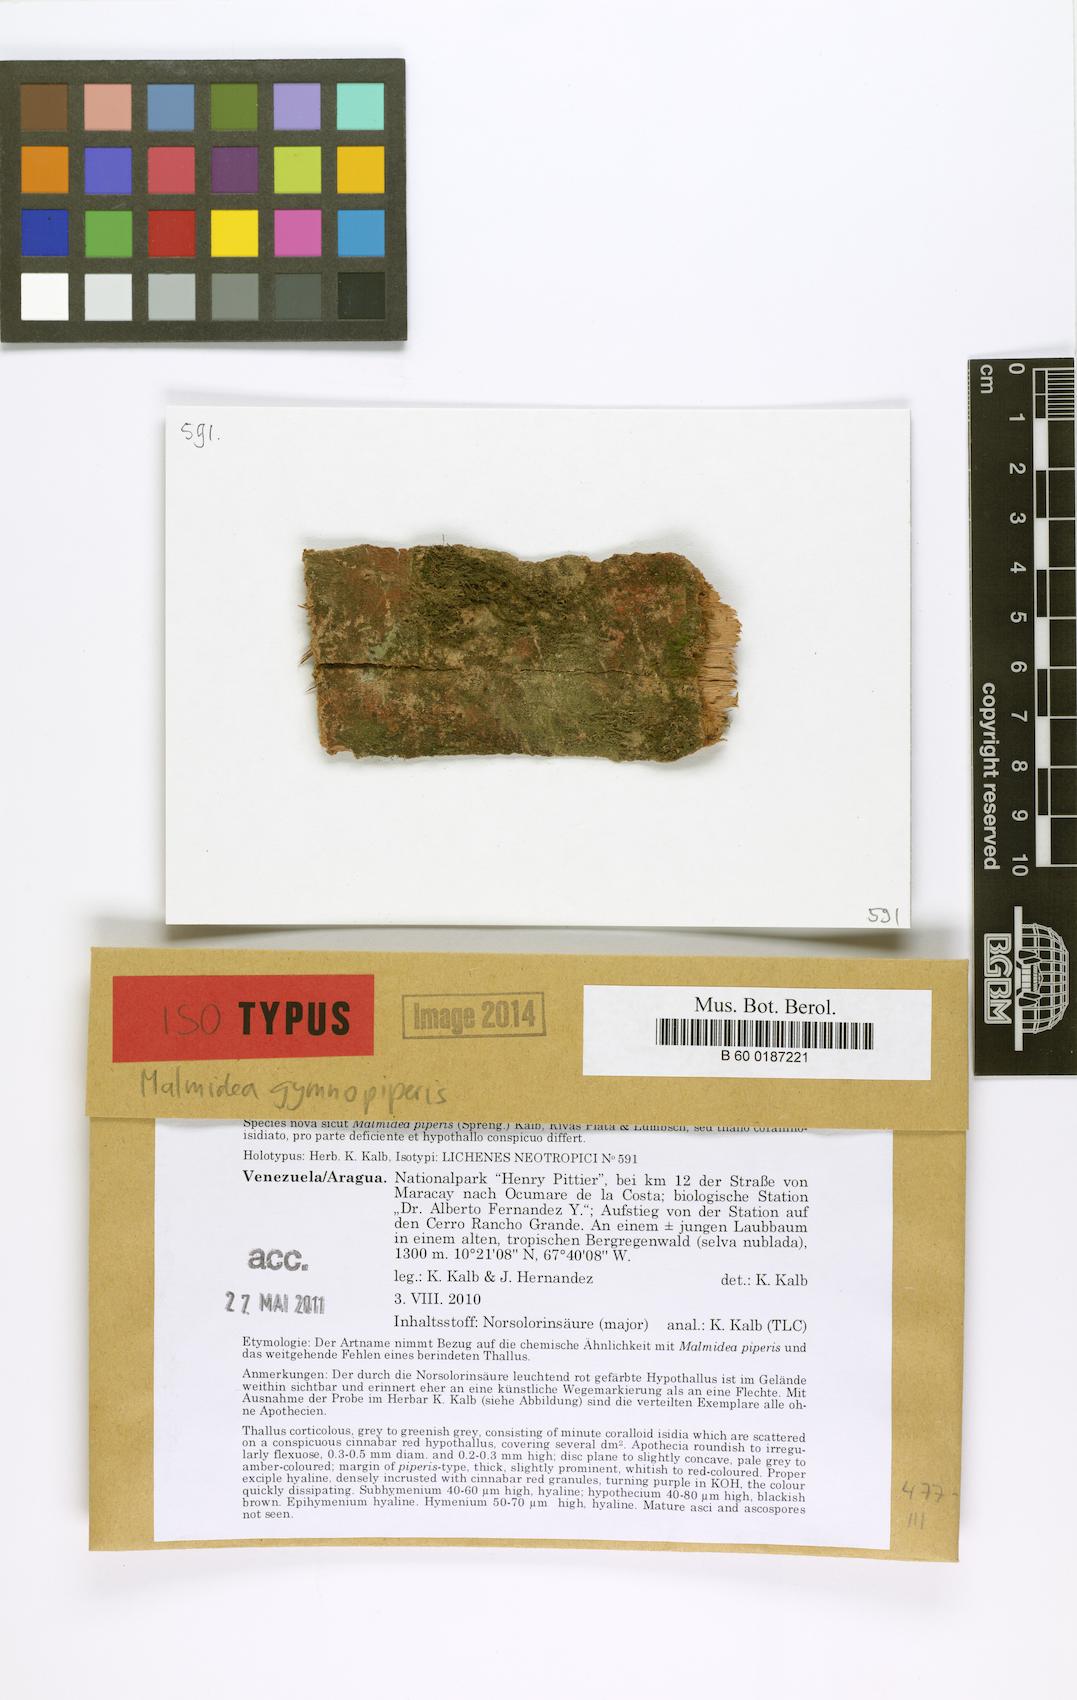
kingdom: Fungi
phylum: Ascomycota
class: Lecanoromycetes
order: Lecanorales
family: Malmideaceae
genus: Sprucidea
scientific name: Sprucidea gymnopiperis
